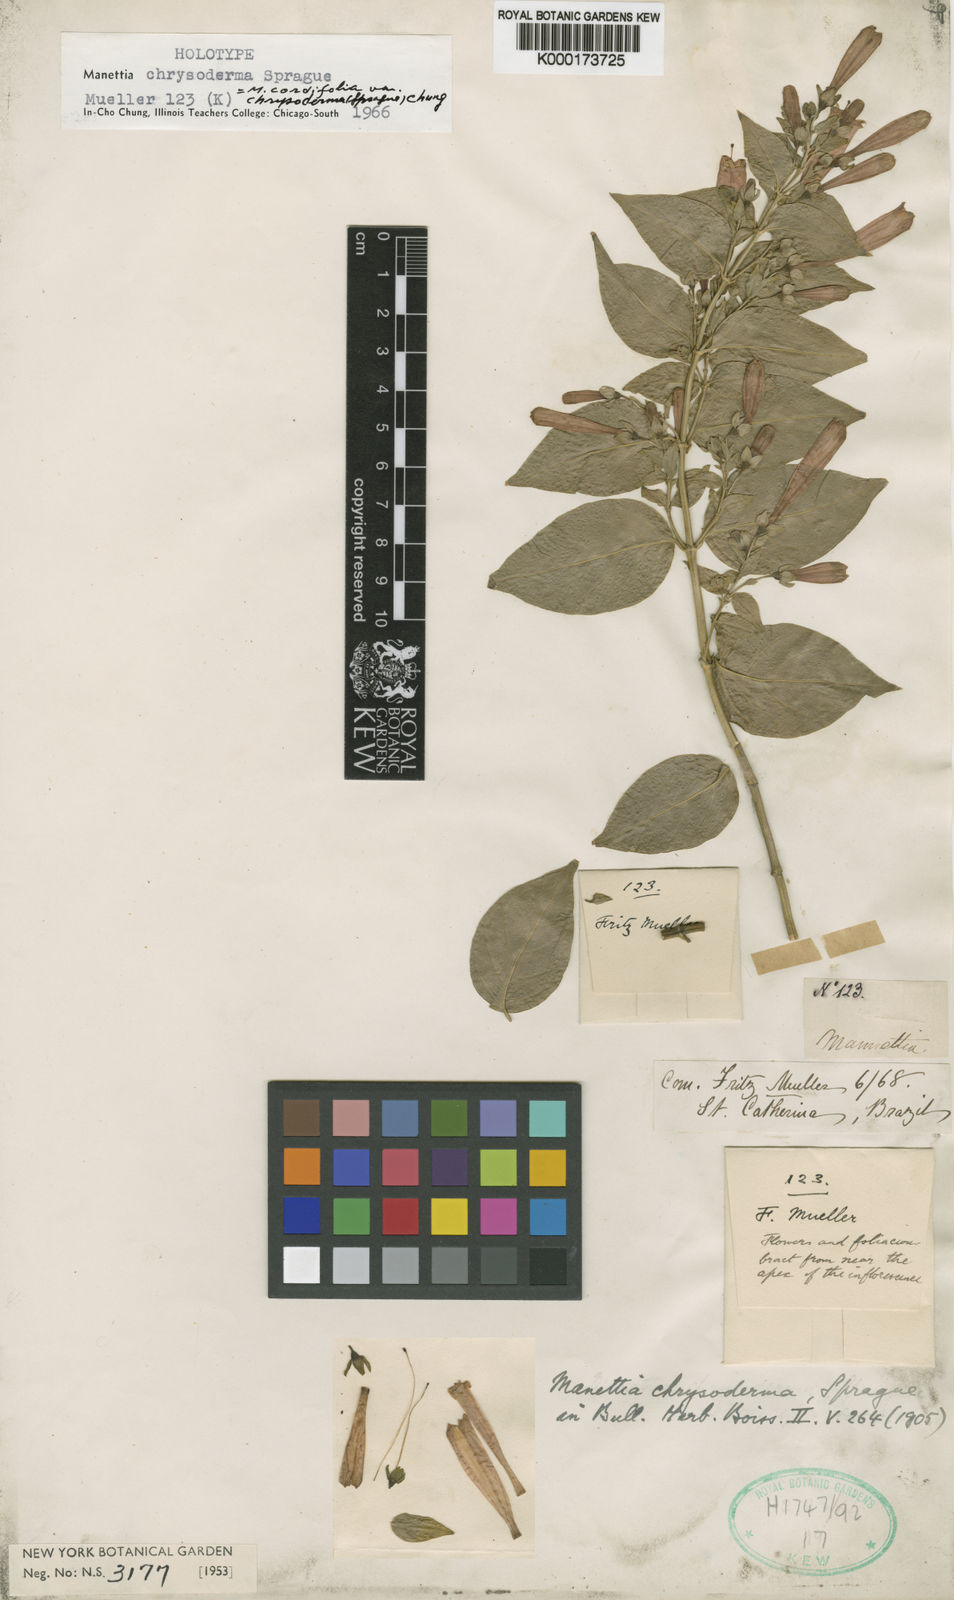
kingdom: Plantae
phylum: Tracheophyta
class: Magnoliopsida
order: Gentianales
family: Rubiaceae
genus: Manettia
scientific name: Manettia chrysoderma
